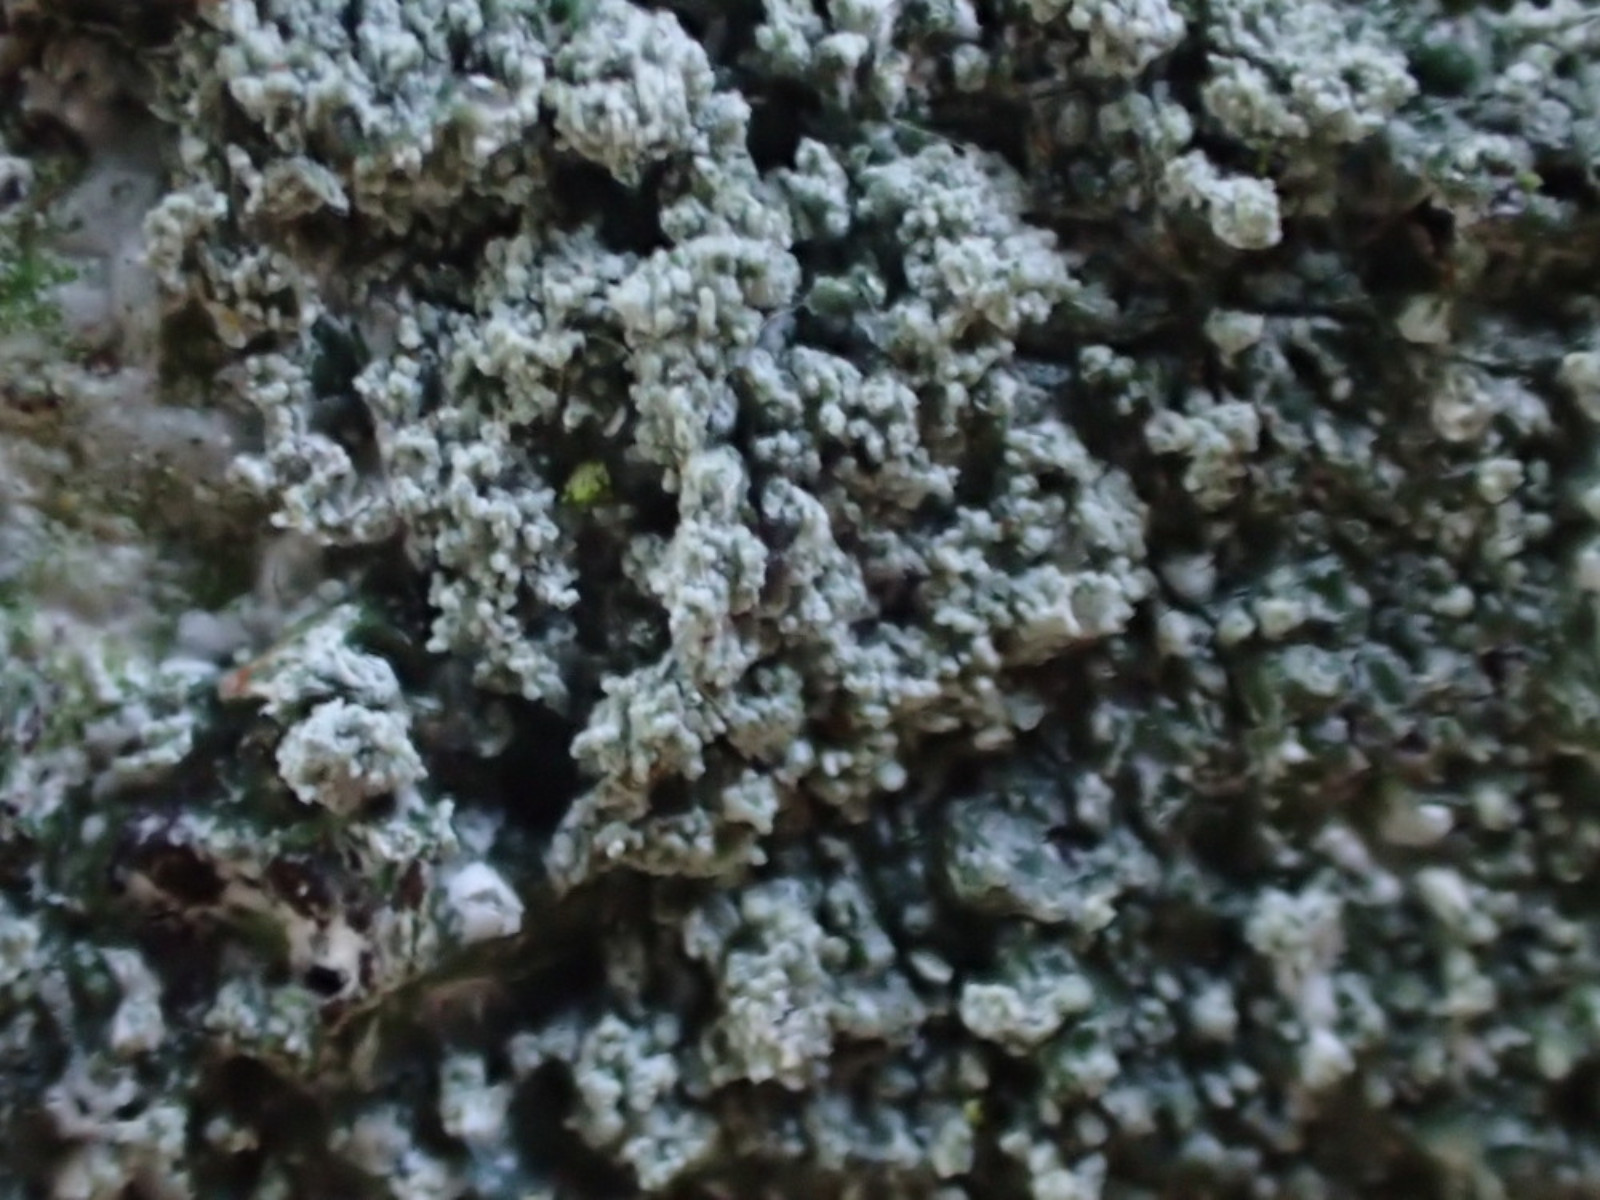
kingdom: Fungi
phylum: Ascomycota
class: Lecanoromycetes
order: Pertusariales
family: Pertusariaceae
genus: Lepra
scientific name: Lepra albescens
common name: hvidmelet prikvortelav
